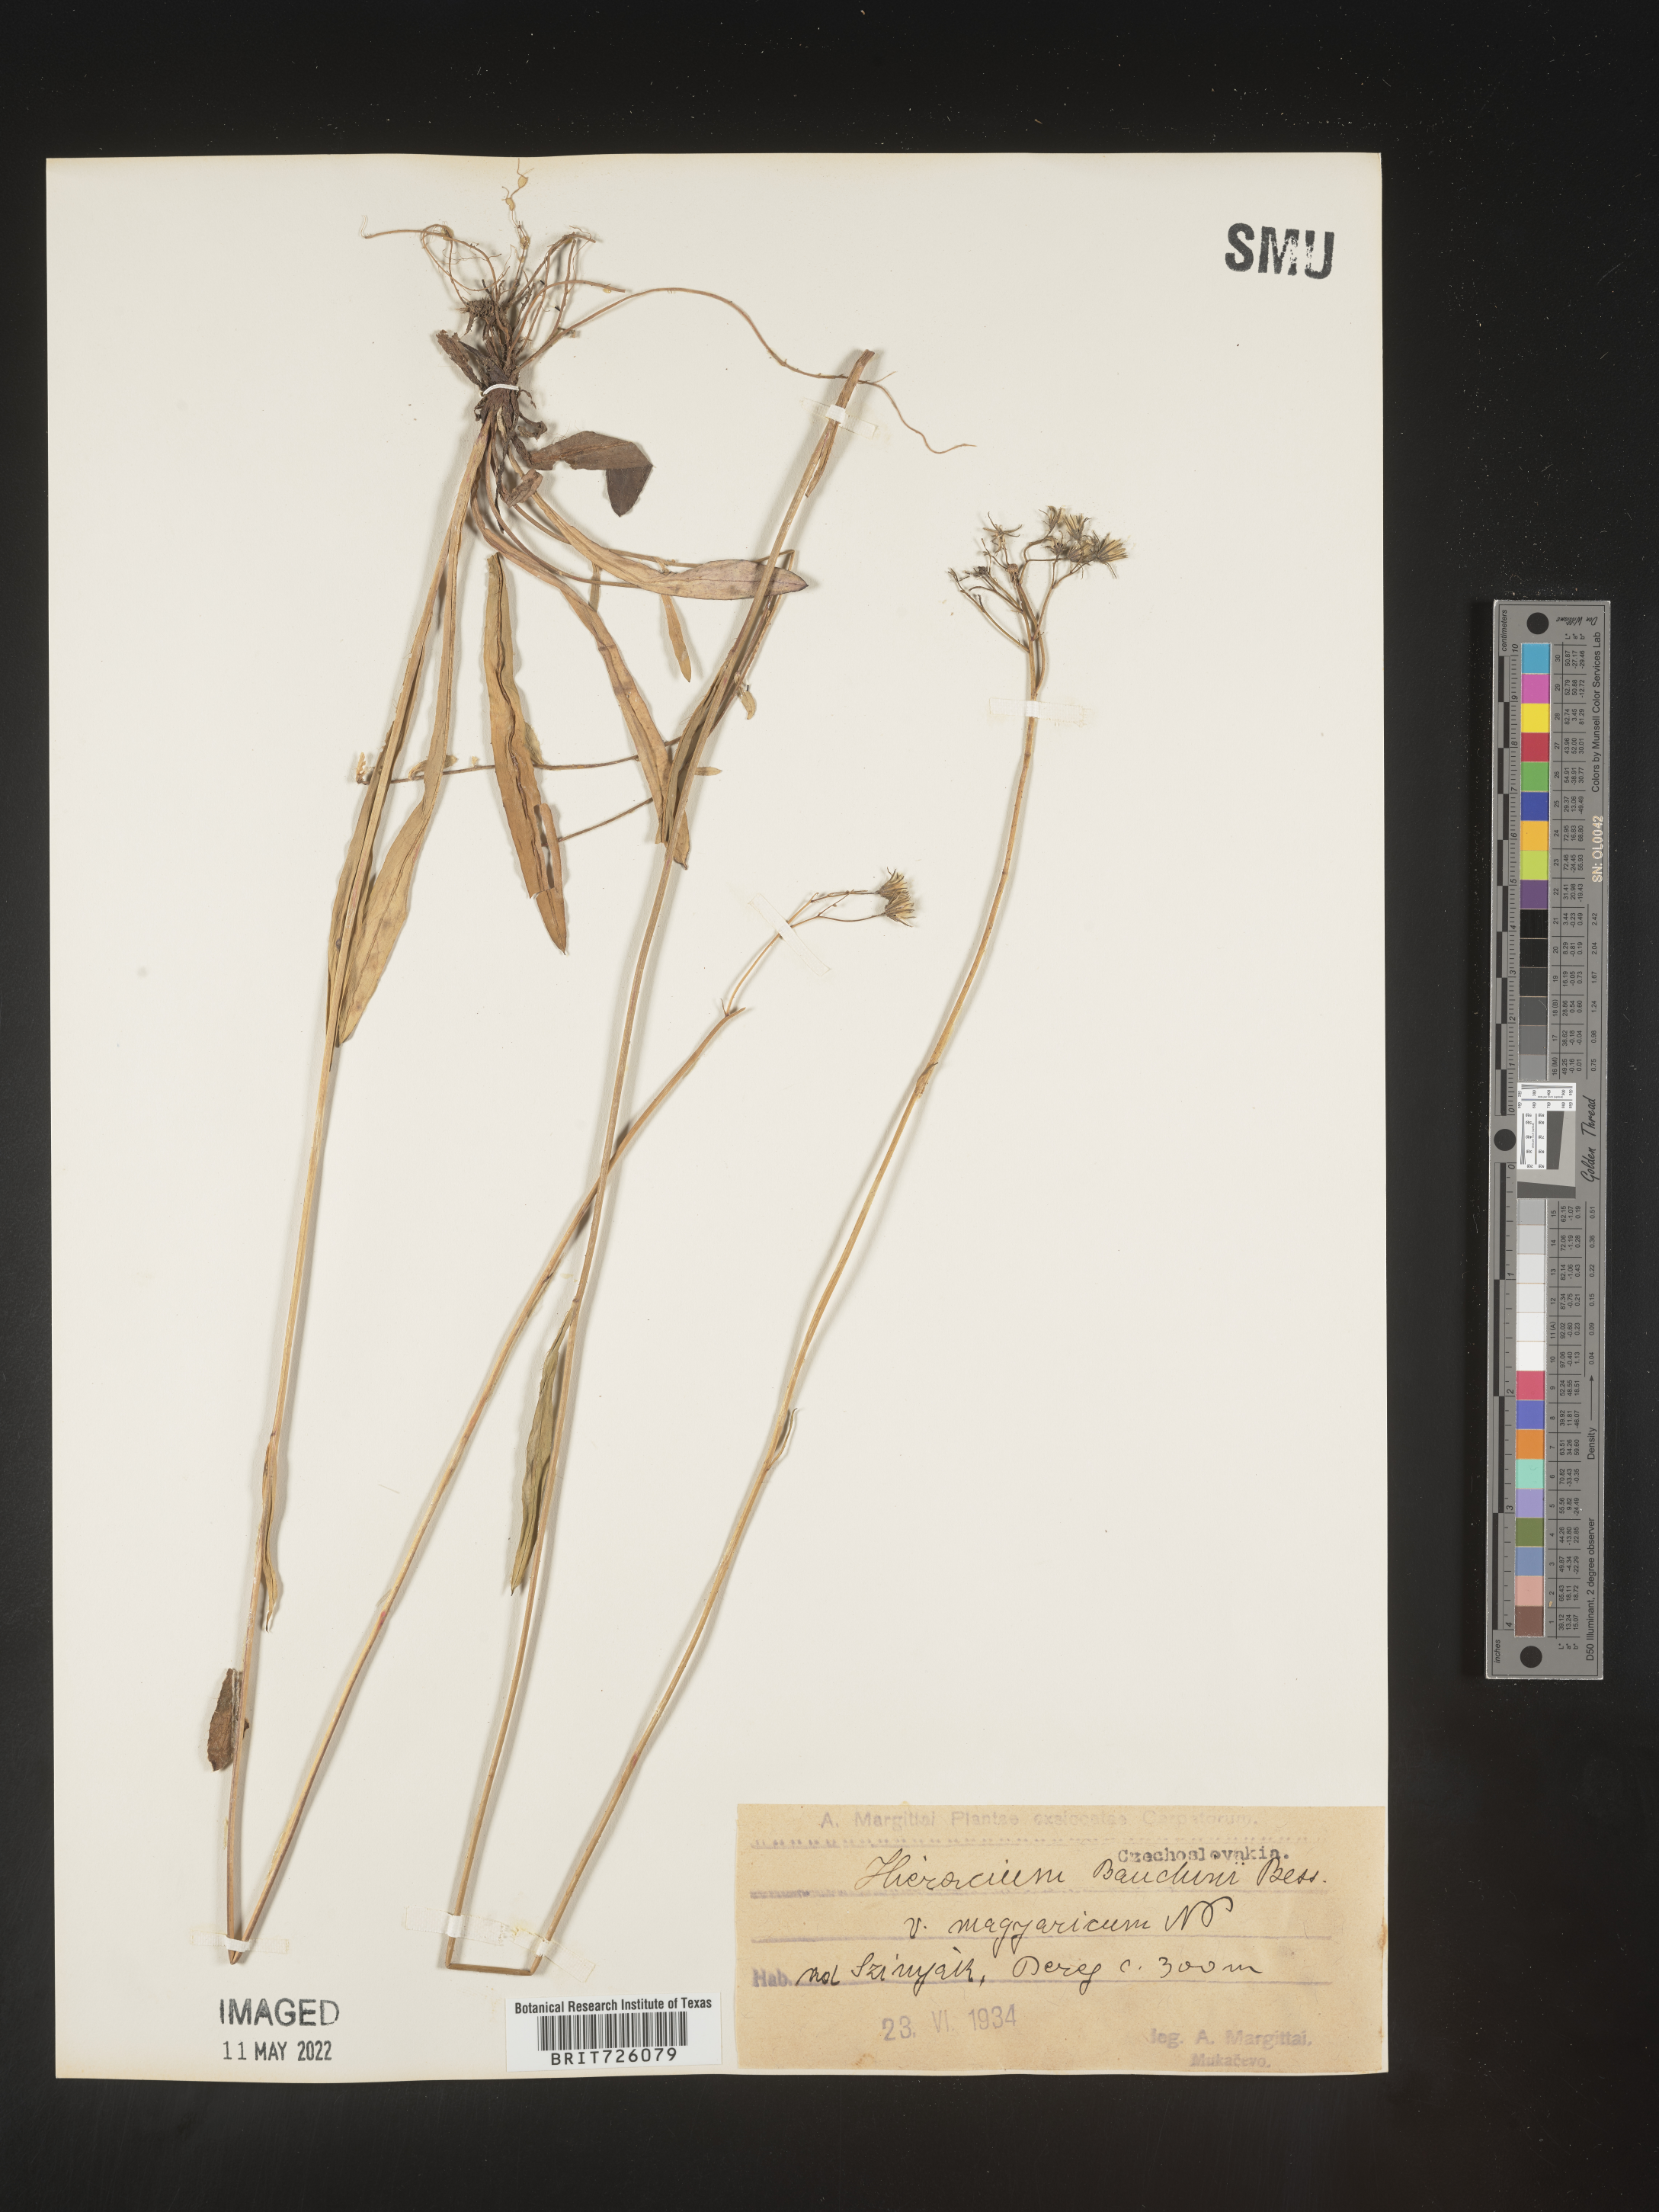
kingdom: Plantae
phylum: Tracheophyta
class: Magnoliopsida
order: Asterales
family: Asteraceae
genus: Hieracium
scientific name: Hieracium
